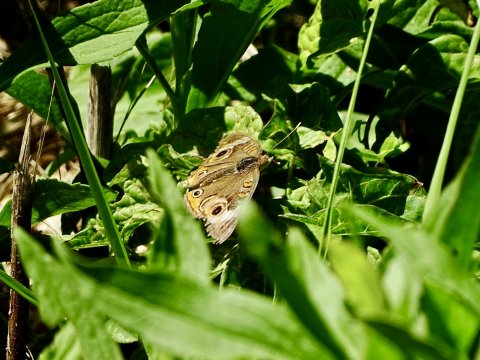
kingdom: Animalia
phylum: Arthropoda
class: Insecta
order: Lepidoptera
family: Nymphalidae
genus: Junonia
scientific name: Junonia coenia
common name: Common Buckeye
